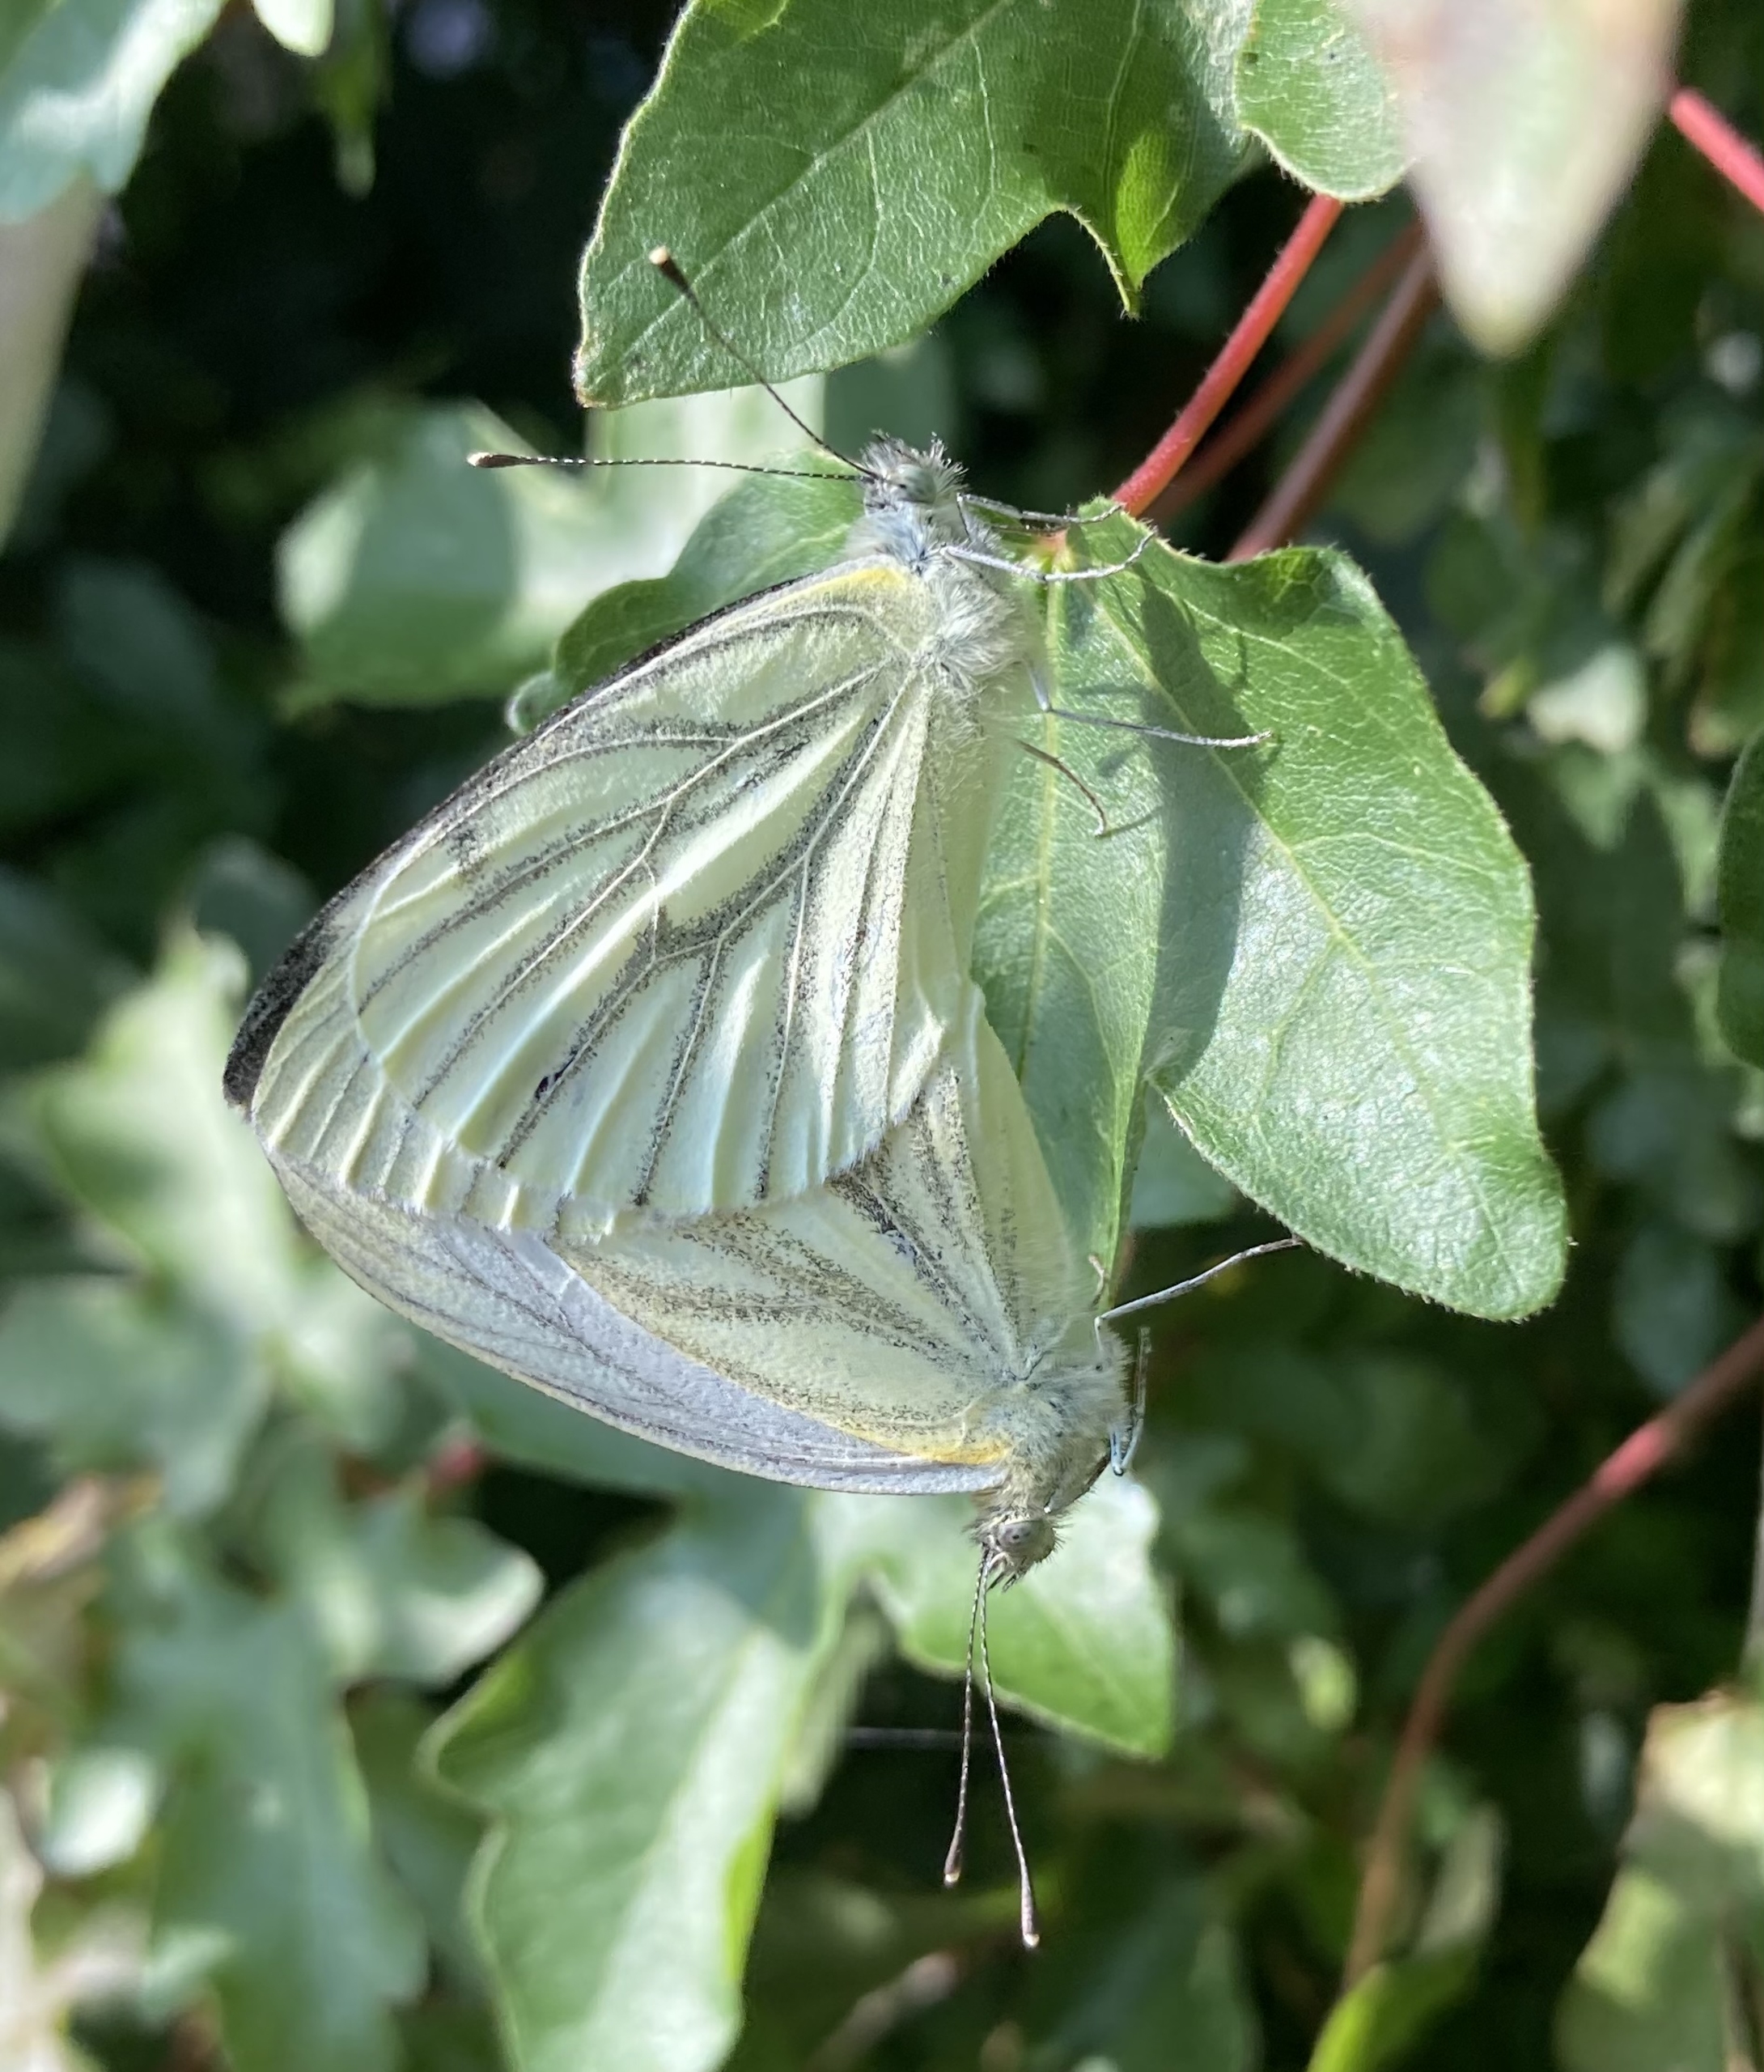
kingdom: Animalia
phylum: Arthropoda
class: Insecta
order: Lepidoptera
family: Pieridae
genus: Pieris
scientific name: Pieris napi
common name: Grønåret kålsommerfugl
